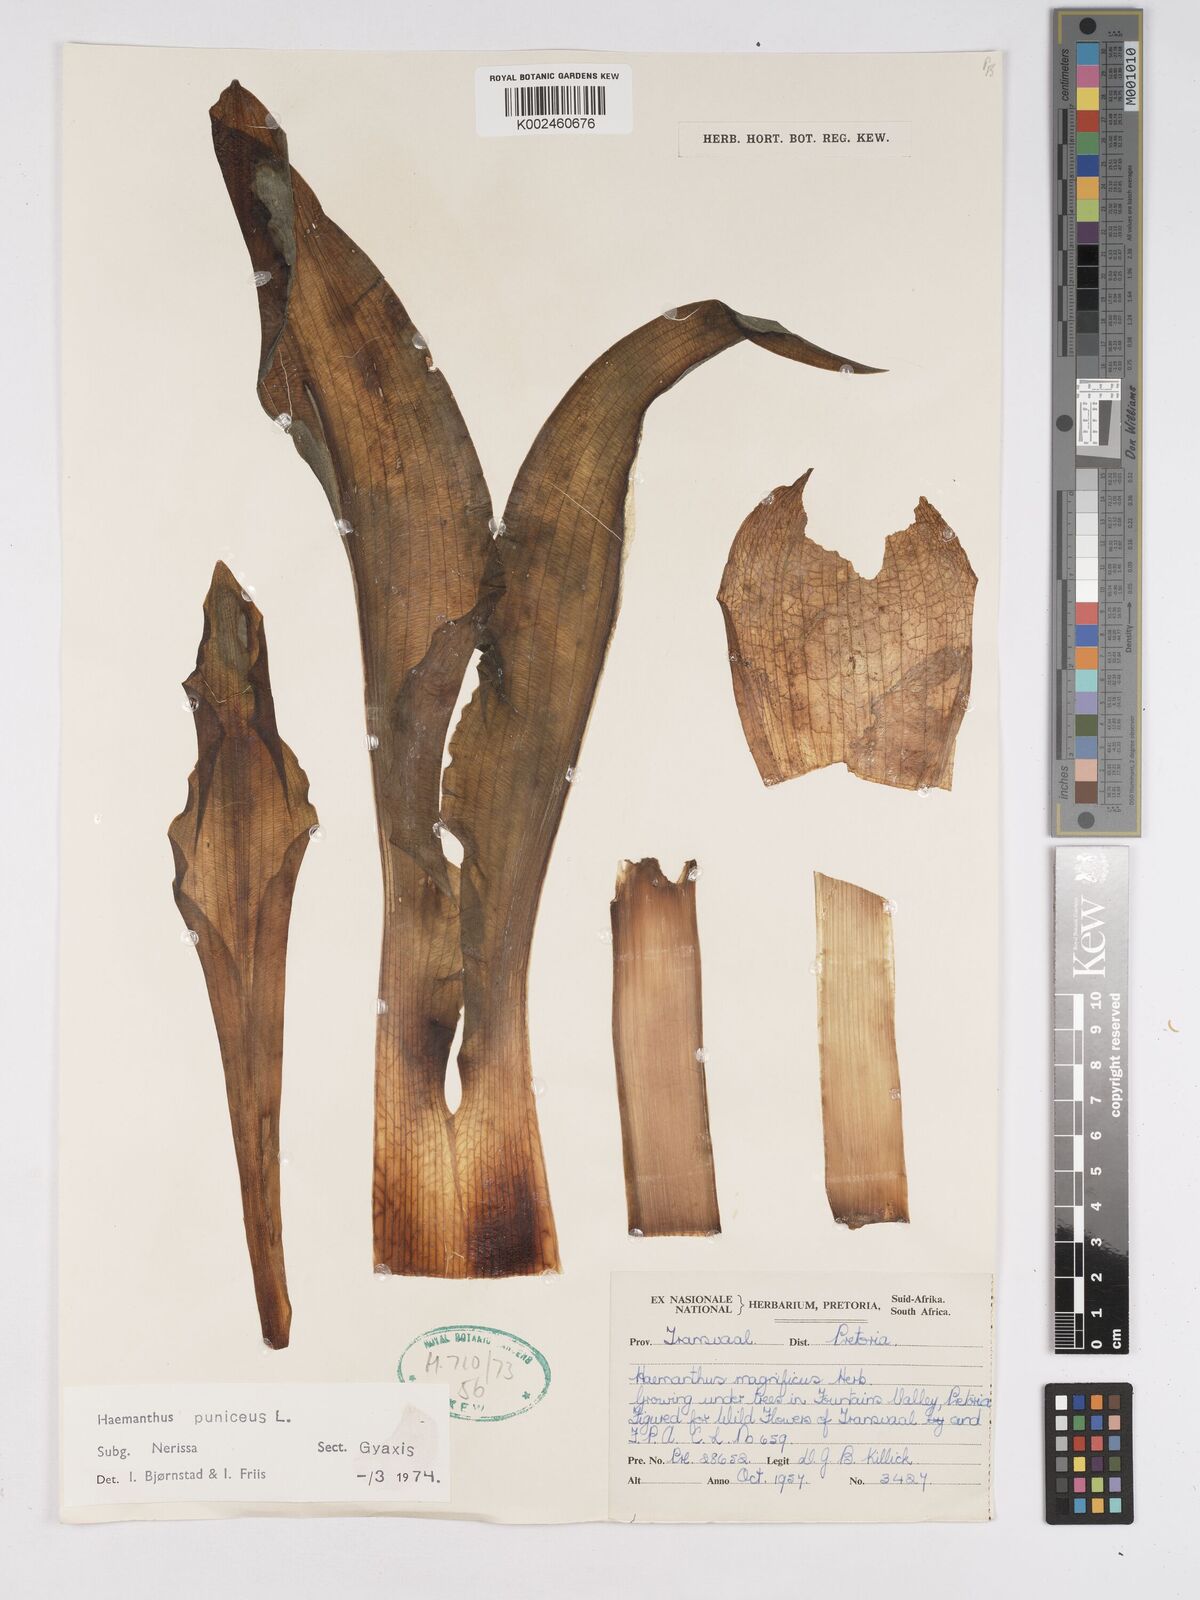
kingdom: Plantae
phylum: Tracheophyta
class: Liliopsida
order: Asparagales
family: Amaryllidaceae
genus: Scadoxus
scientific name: Scadoxus puniceus
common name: Royal-paintbrush
